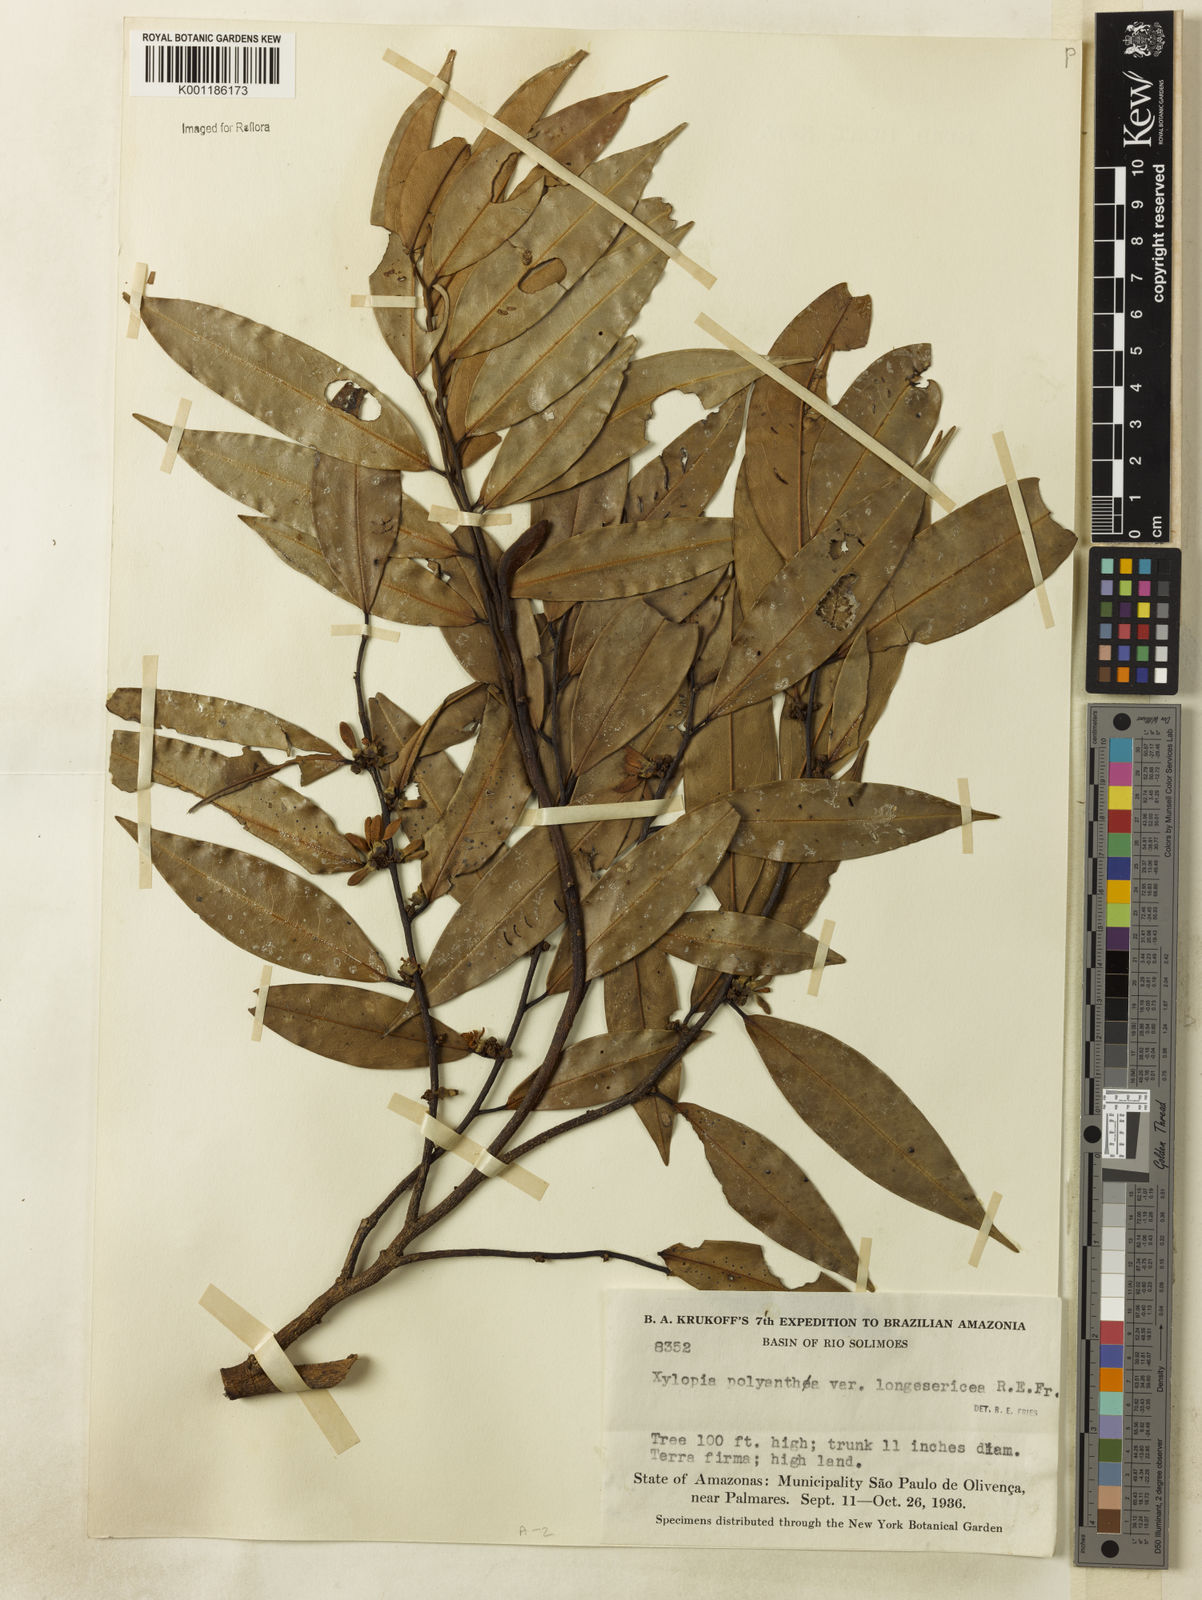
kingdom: Plantae
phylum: Tracheophyta
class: Magnoliopsida
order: Magnoliales
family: Annonaceae
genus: Xylopia
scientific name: Xylopia polyantha
